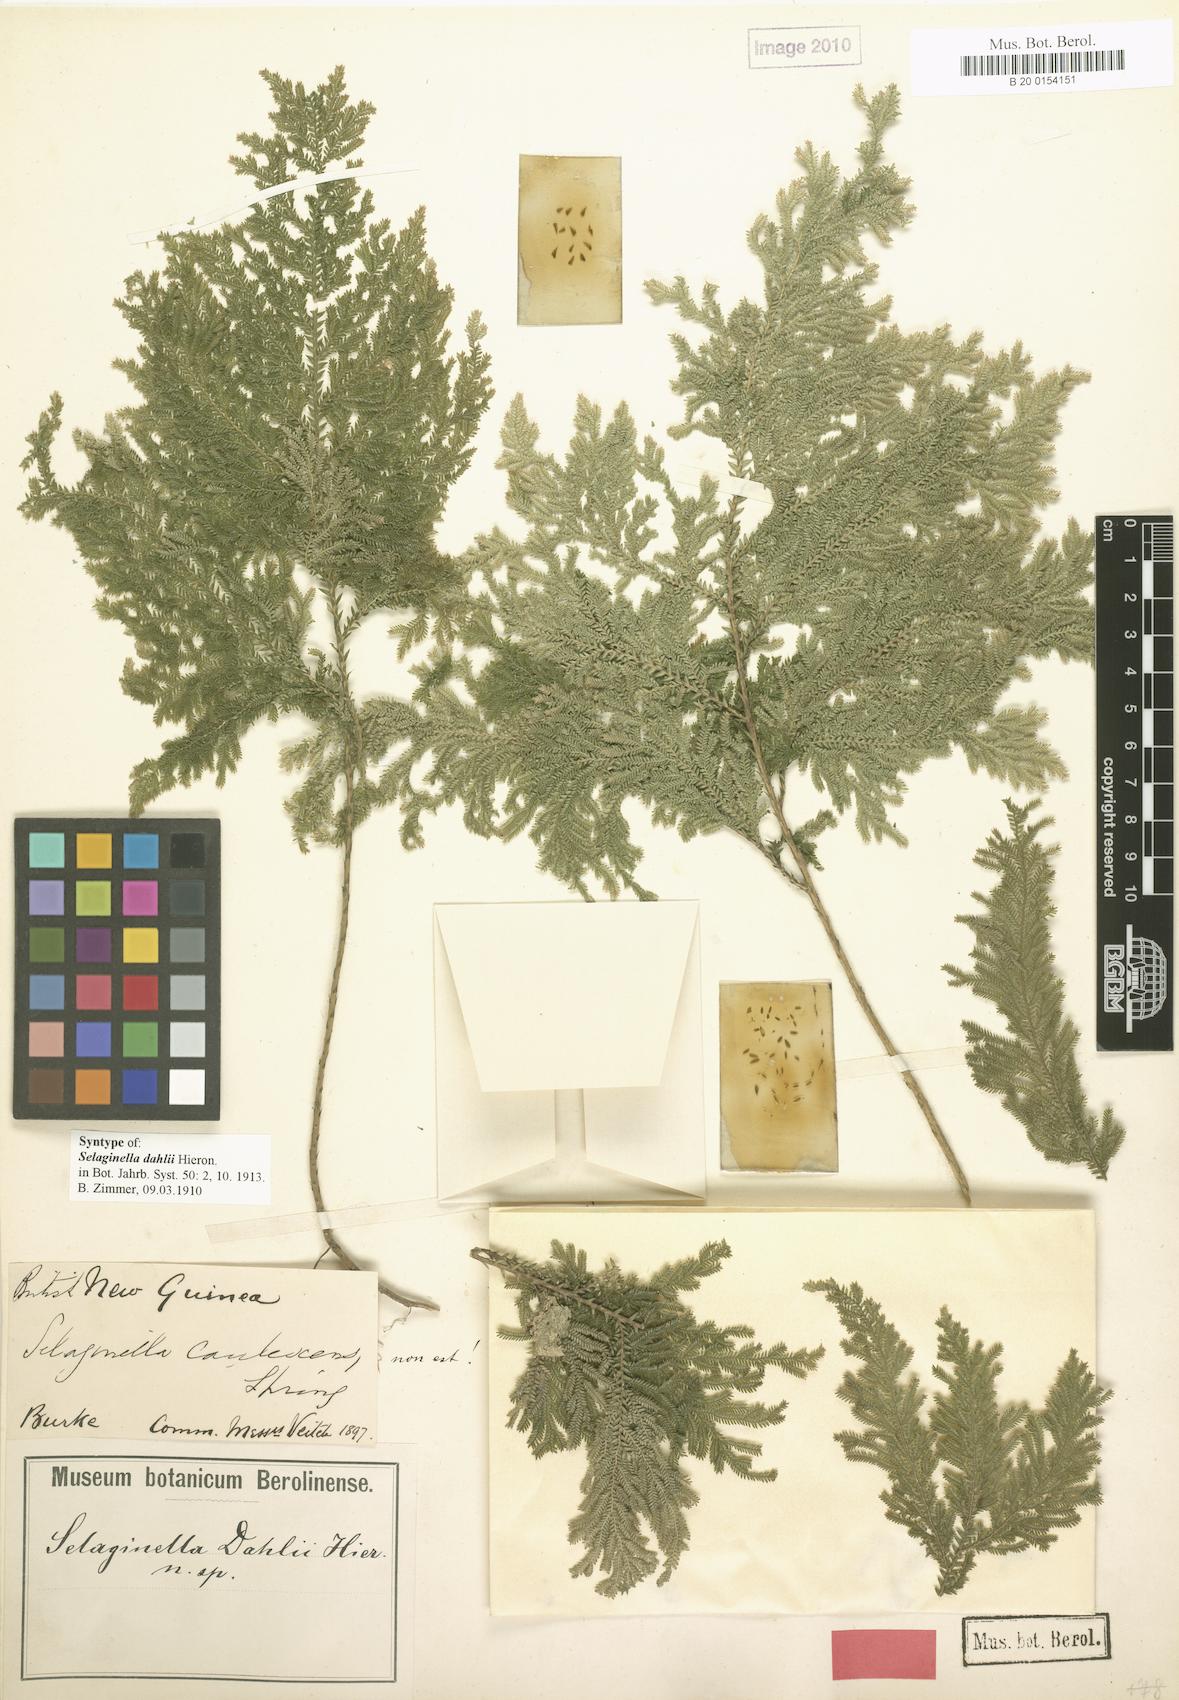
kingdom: Plantae
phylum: Tracheophyta
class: Lycopodiopsida
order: Selaginellales
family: Selaginellaceae
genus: Selaginella
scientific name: Selaginella dahlii
